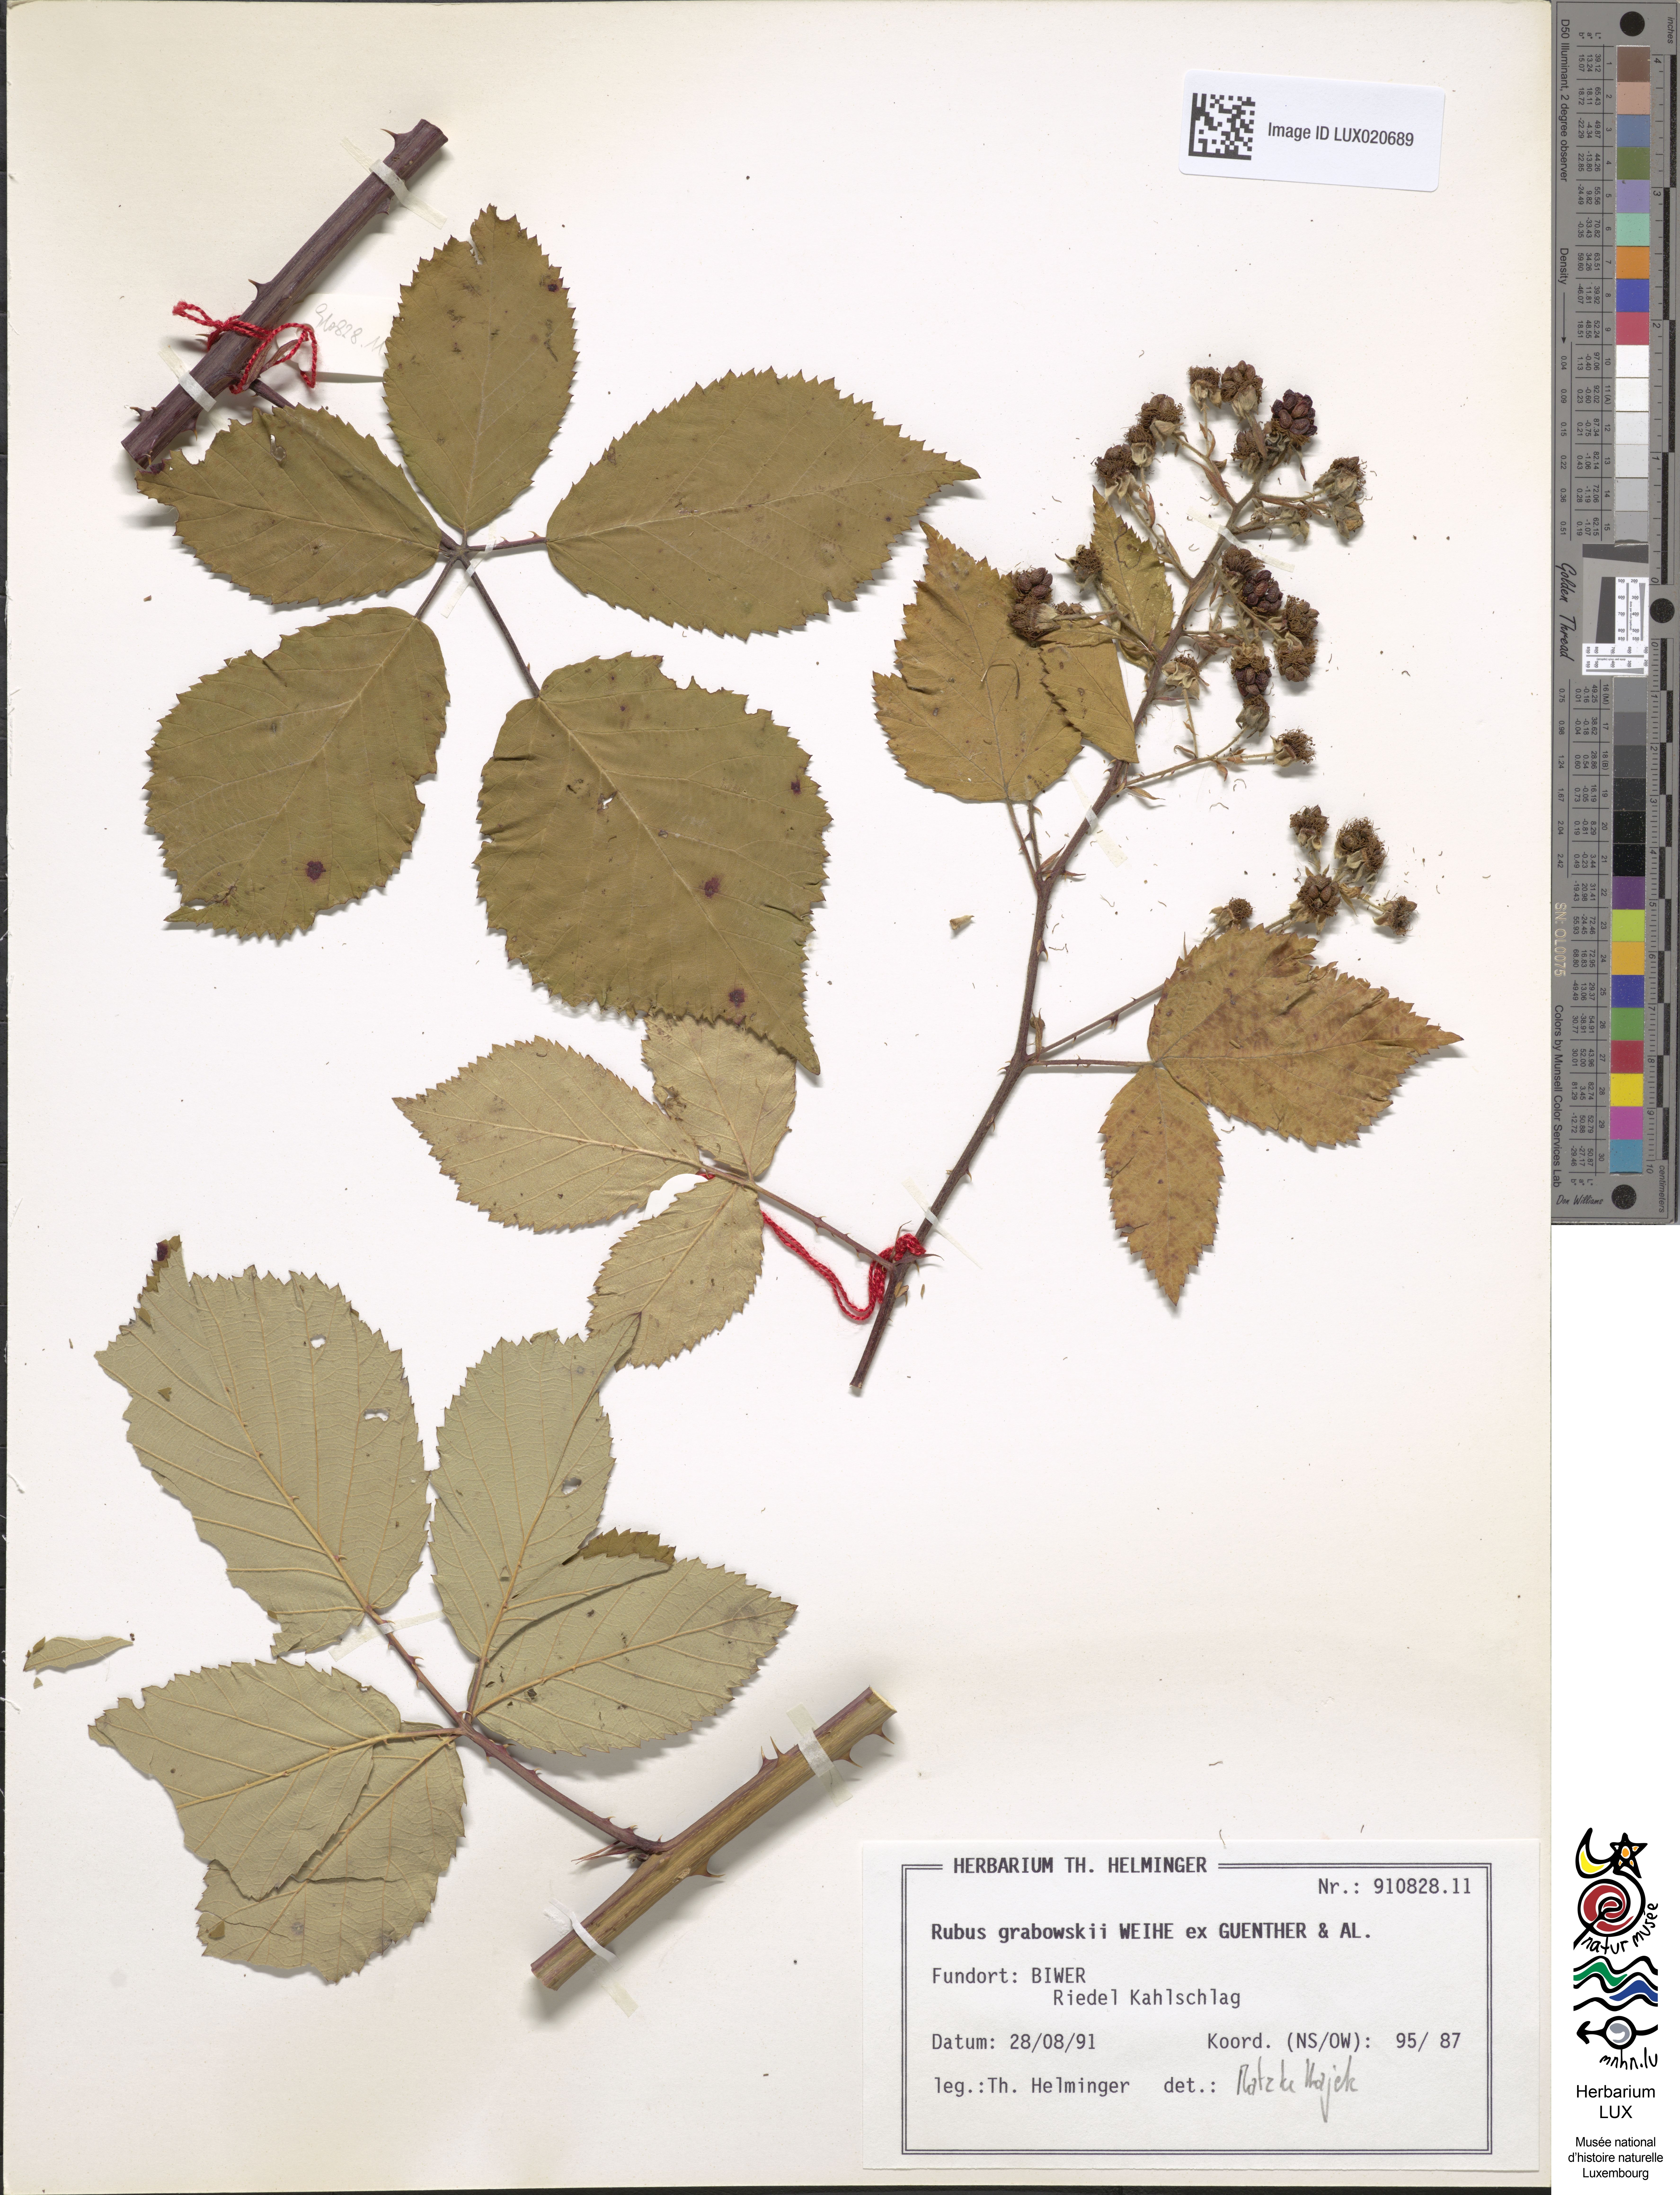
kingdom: Plantae
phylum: Tracheophyta
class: Magnoliopsida
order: Rosales
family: Rosaceae
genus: Rubus
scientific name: Rubus grabowskii
